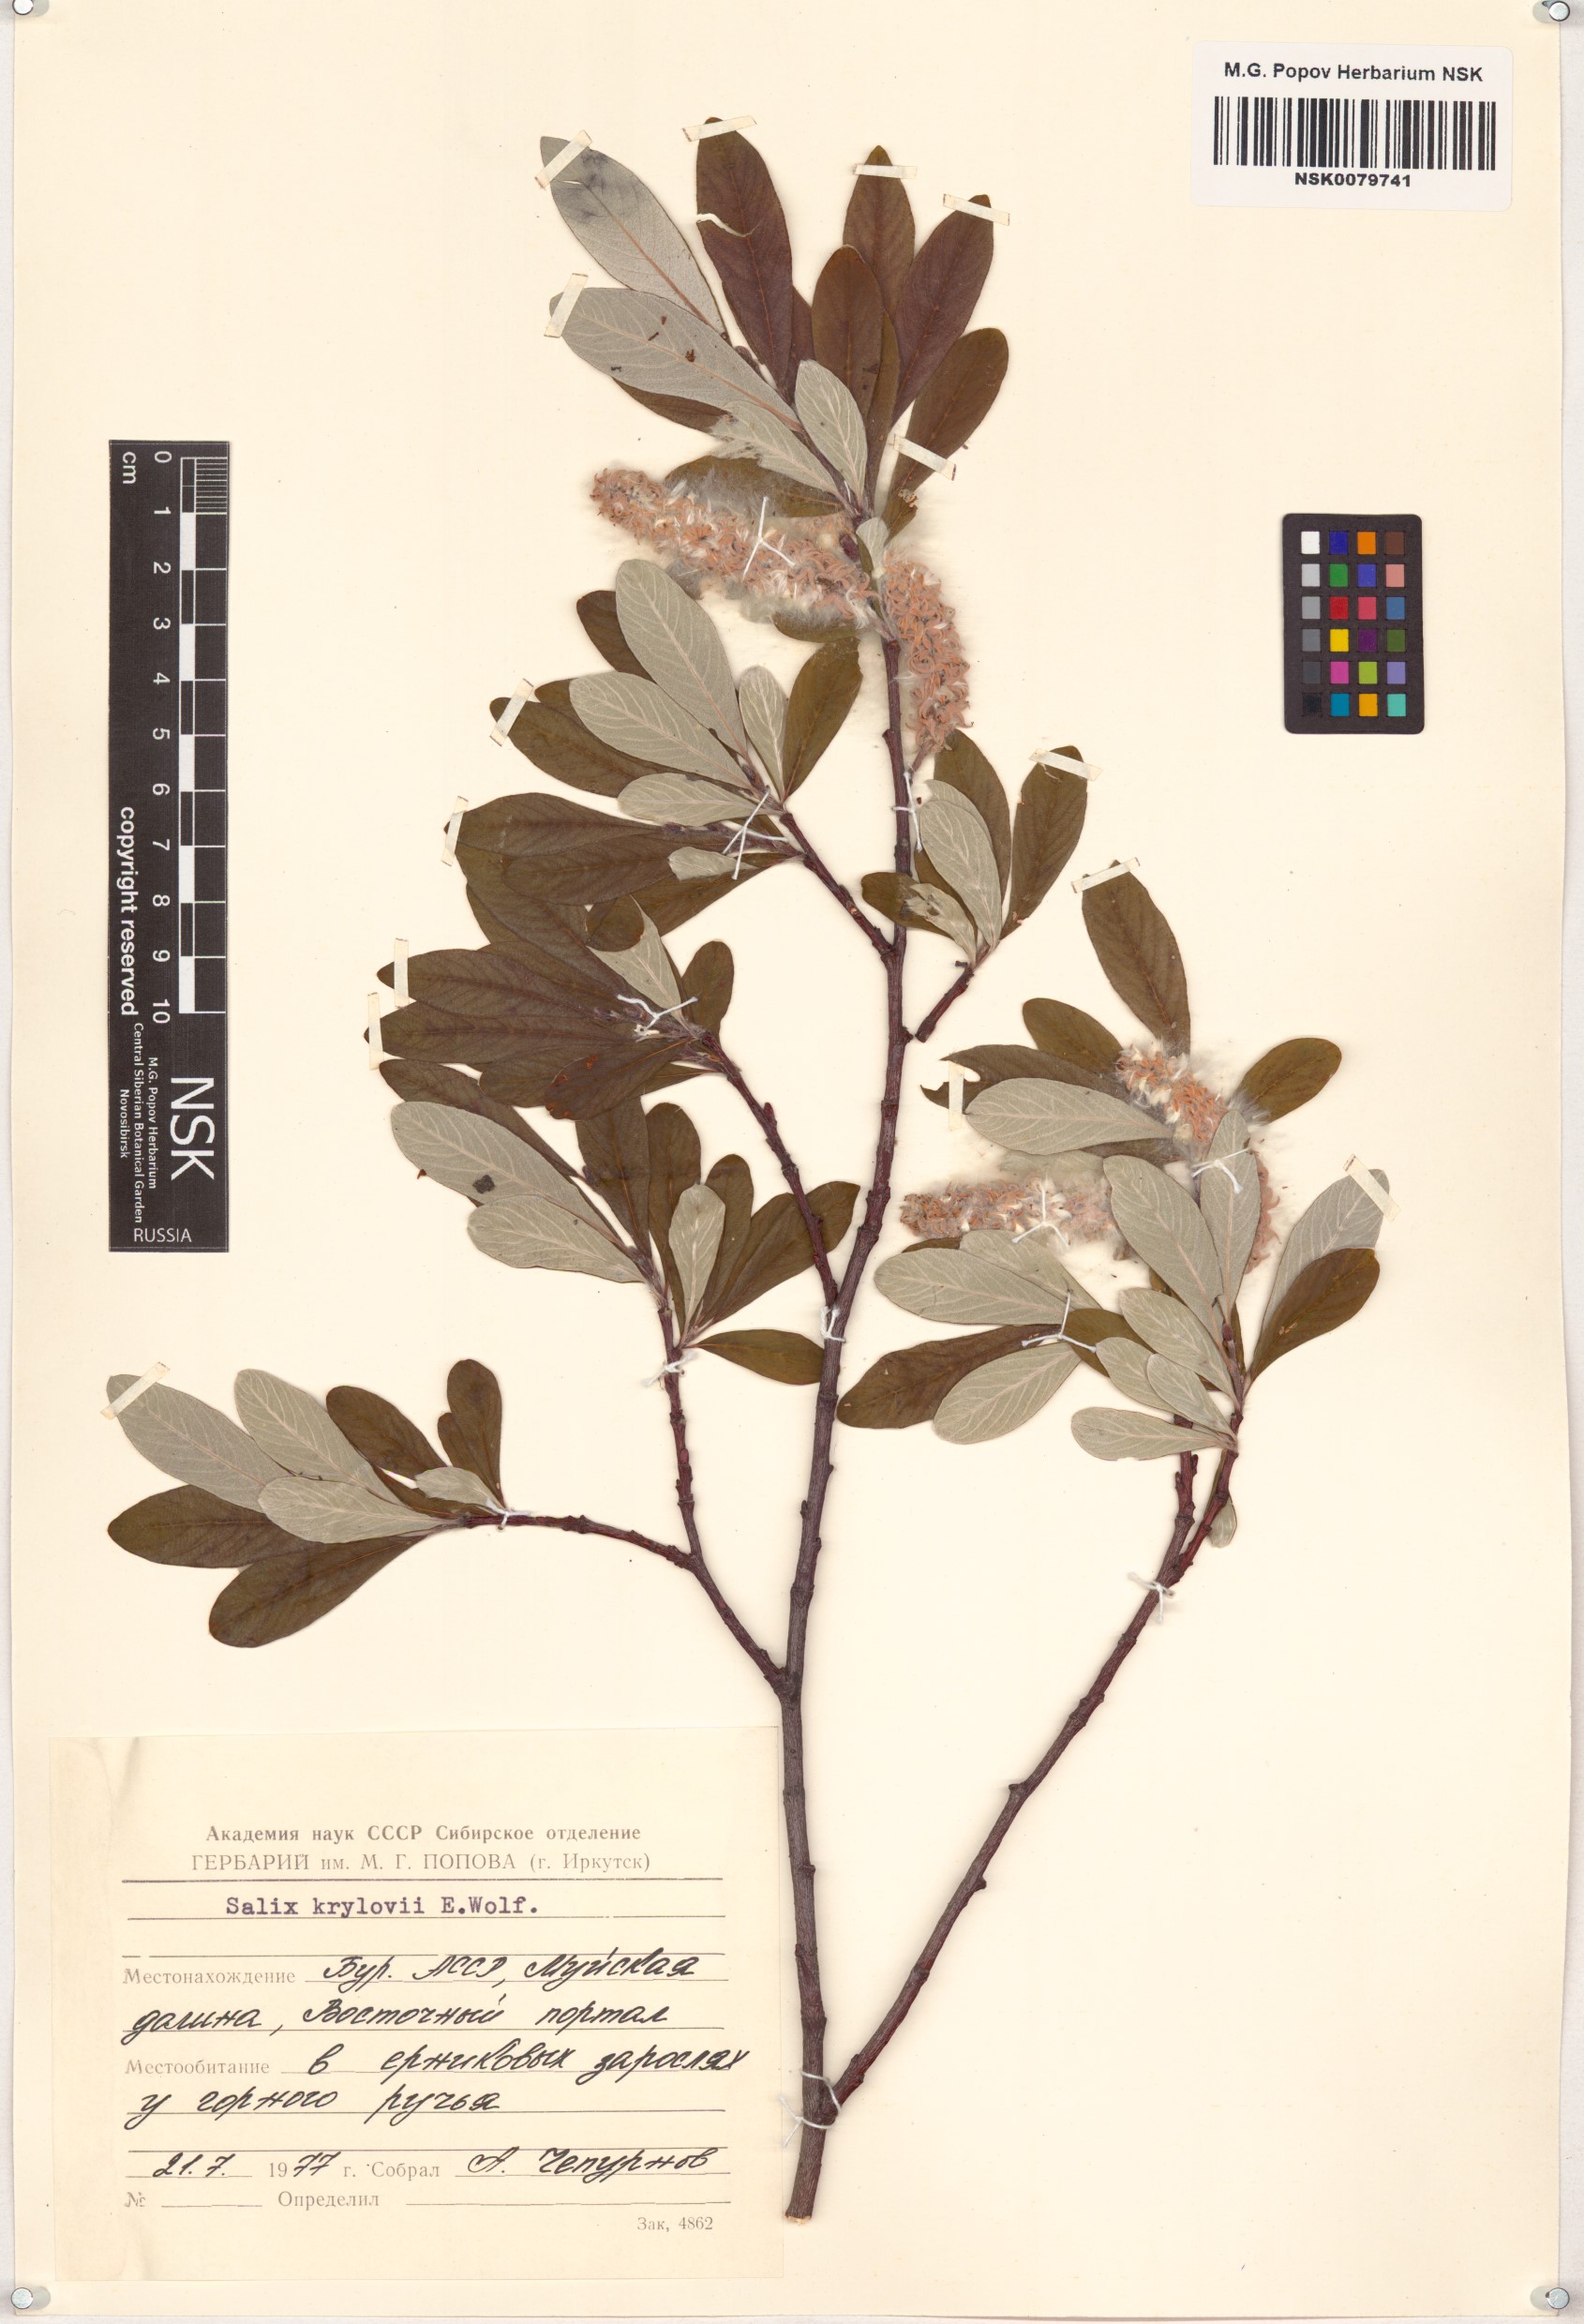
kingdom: Plantae
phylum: Tracheophyta
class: Magnoliopsida
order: Malpighiales
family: Salicaceae
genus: Salix
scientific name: Salix krylovii
